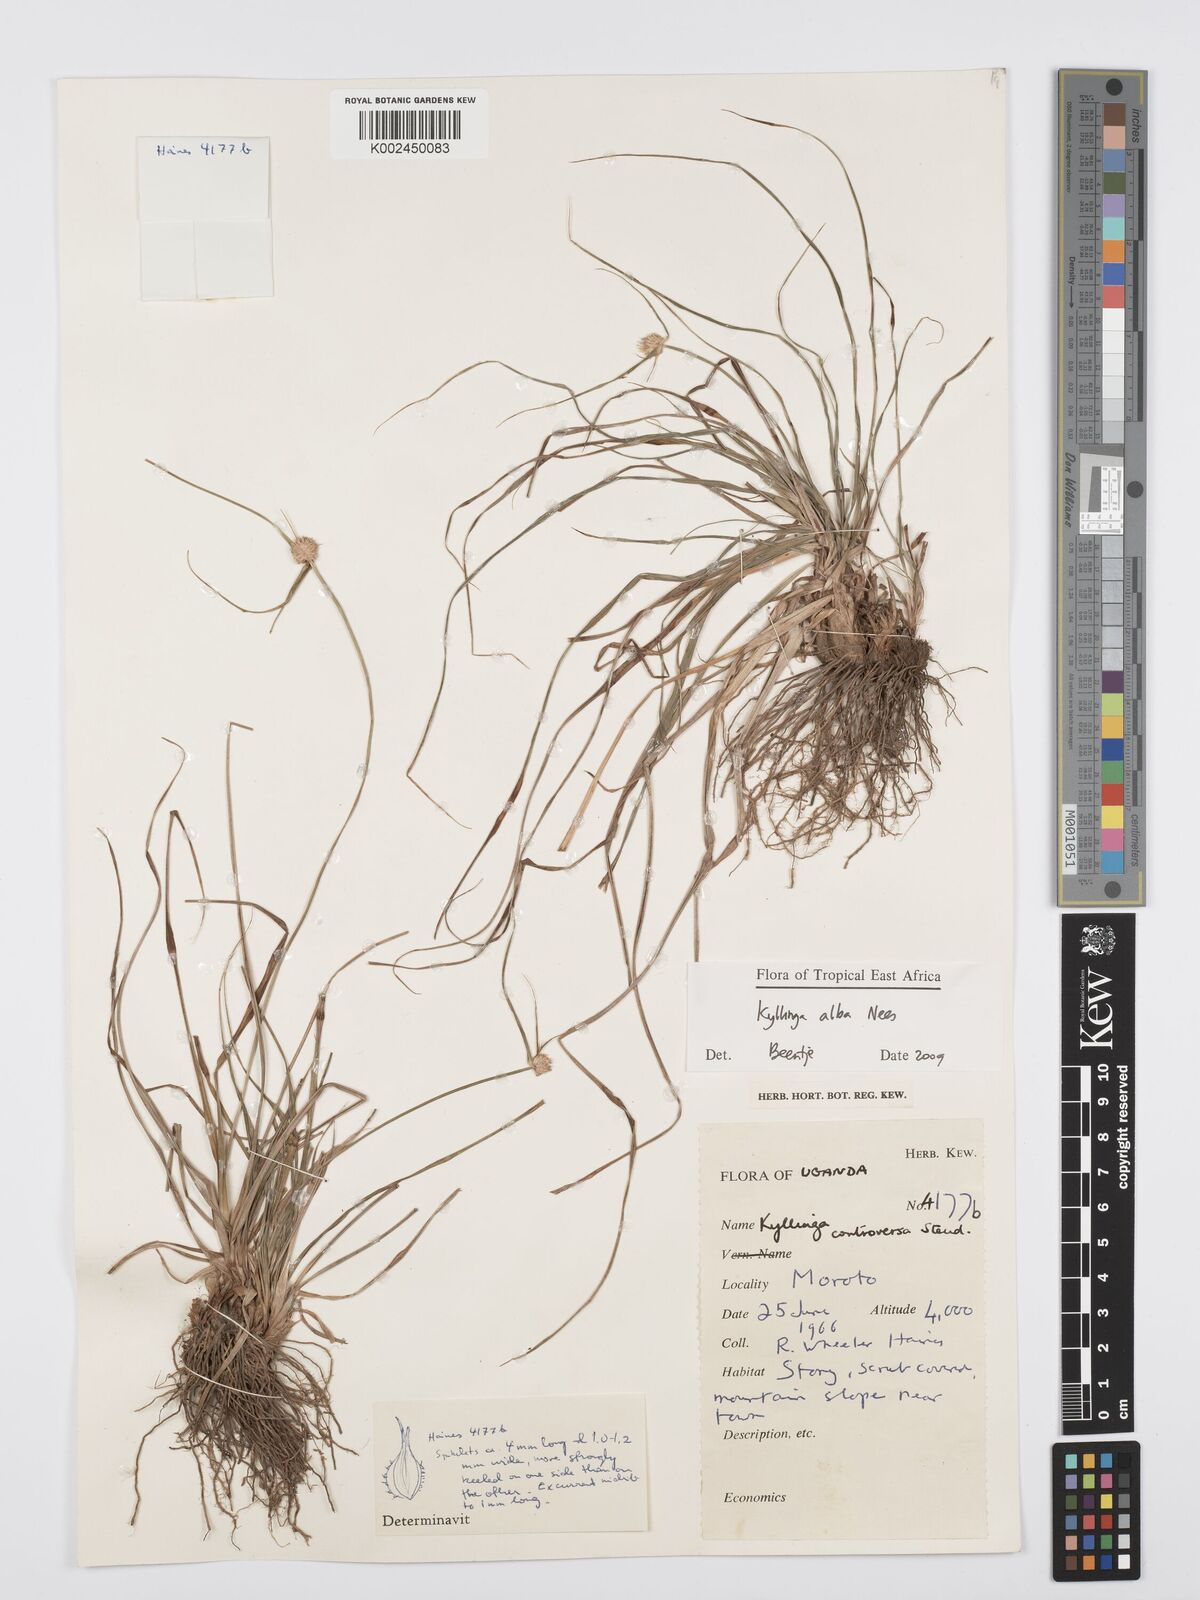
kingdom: Plantae
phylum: Tracheophyta
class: Liliopsida
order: Poales
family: Cyperaceae
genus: Cyperus
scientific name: Cyperus
